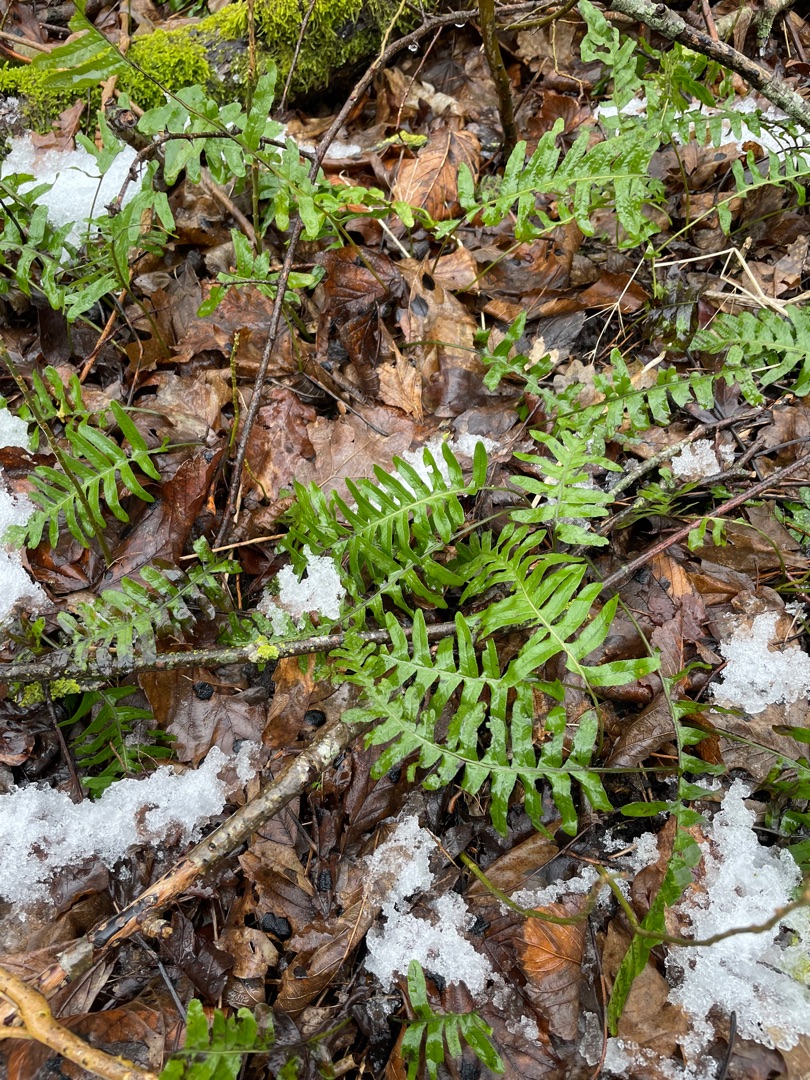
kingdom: Plantae
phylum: Tracheophyta
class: Polypodiopsida
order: Polypodiales
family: Polypodiaceae
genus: Polypodium
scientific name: Polypodium vulgare
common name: Almindelig engelsød
